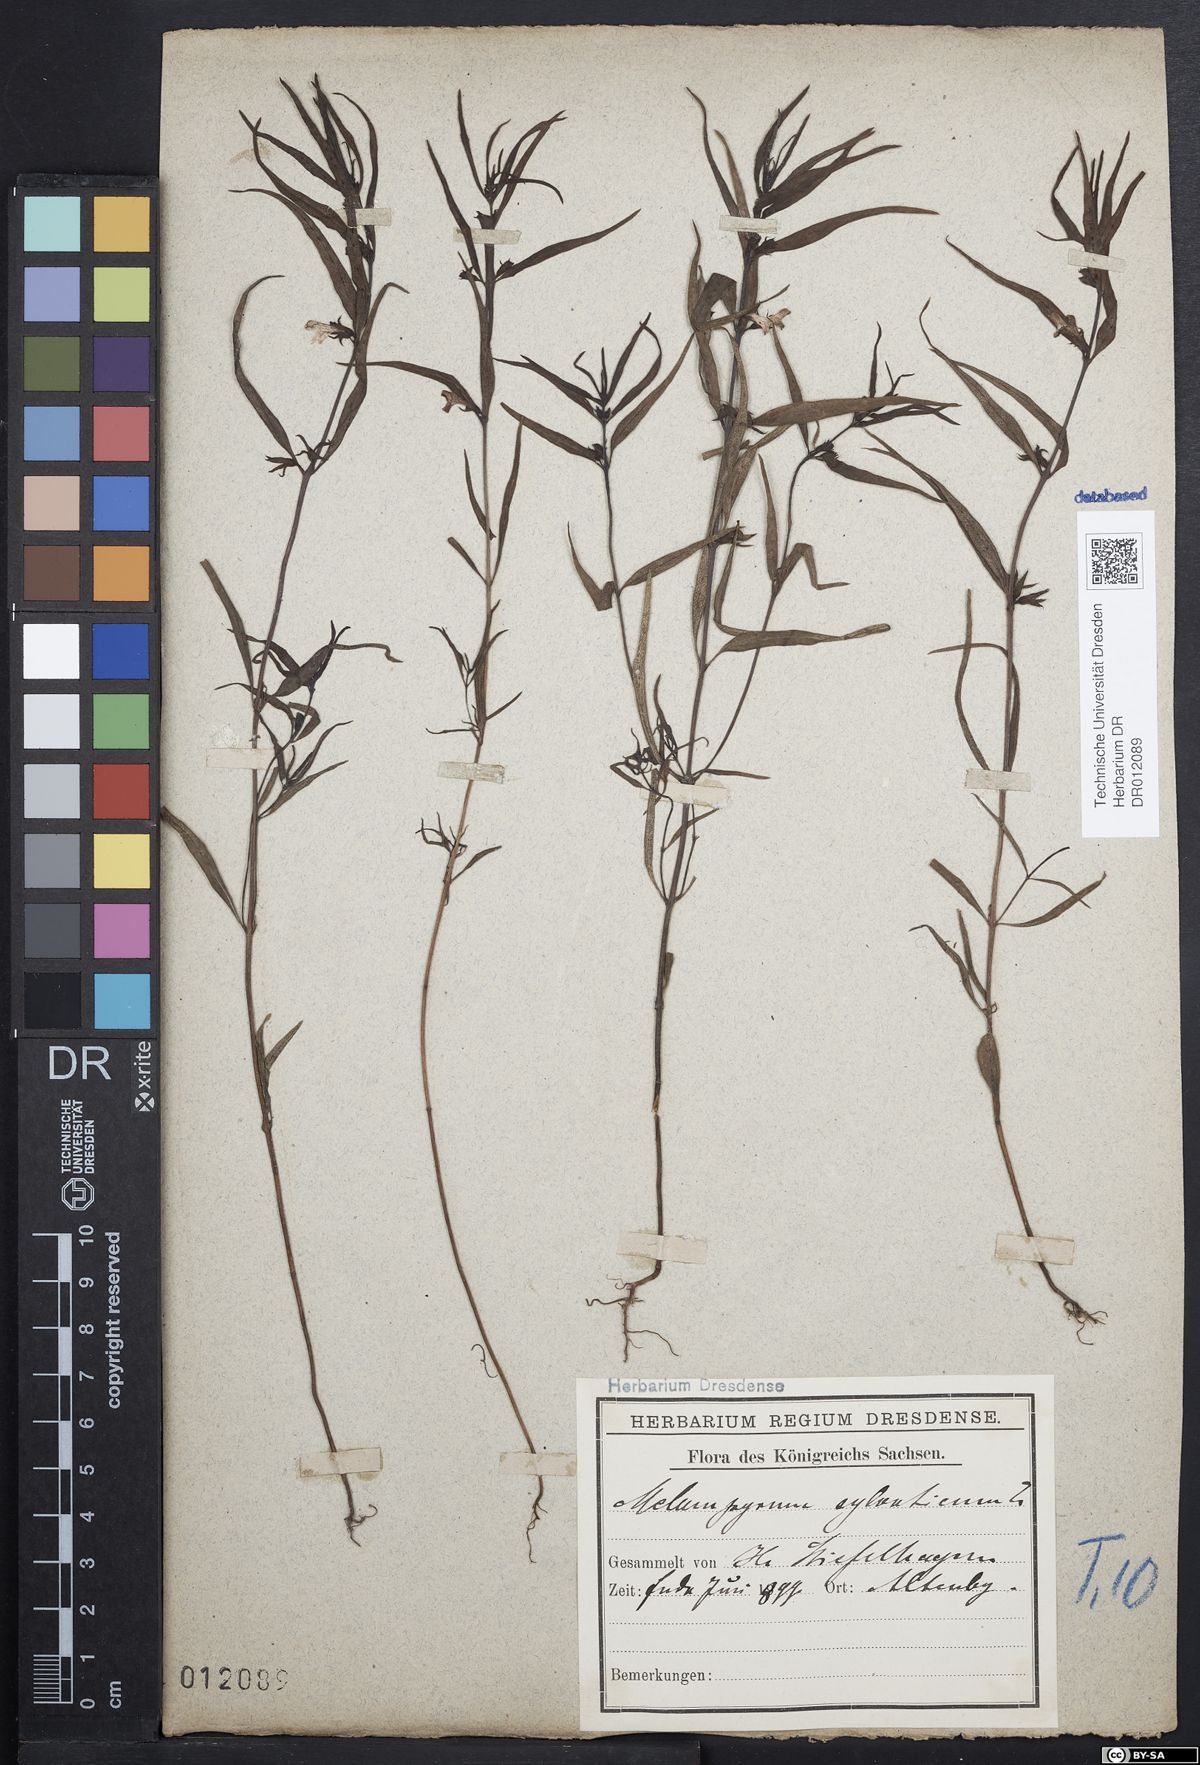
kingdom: Plantae
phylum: Tracheophyta
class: Magnoliopsida
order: Lamiales
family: Orobanchaceae
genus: Melampyrum
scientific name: Melampyrum sylvaticum
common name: Small cow-wheat
